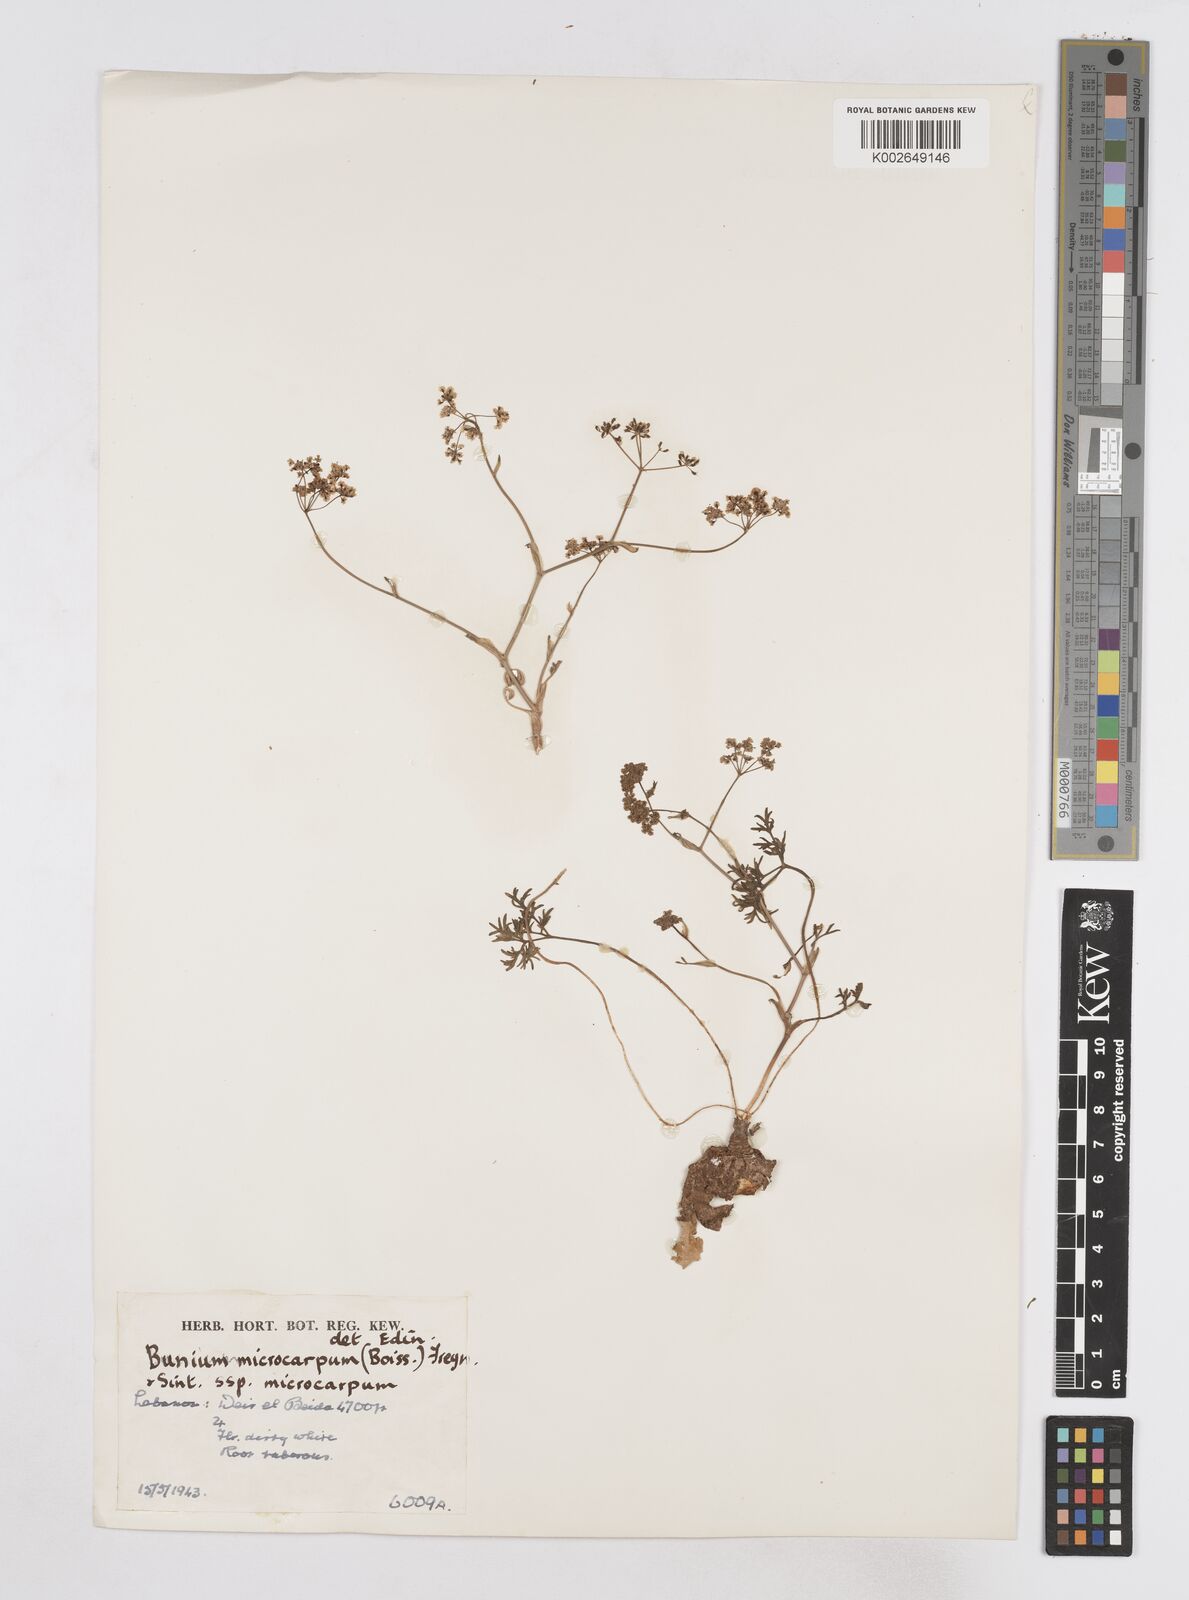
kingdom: Plantae
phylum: Tracheophyta
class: Magnoliopsida
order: Apiales
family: Apiaceae
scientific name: Apiaceae
